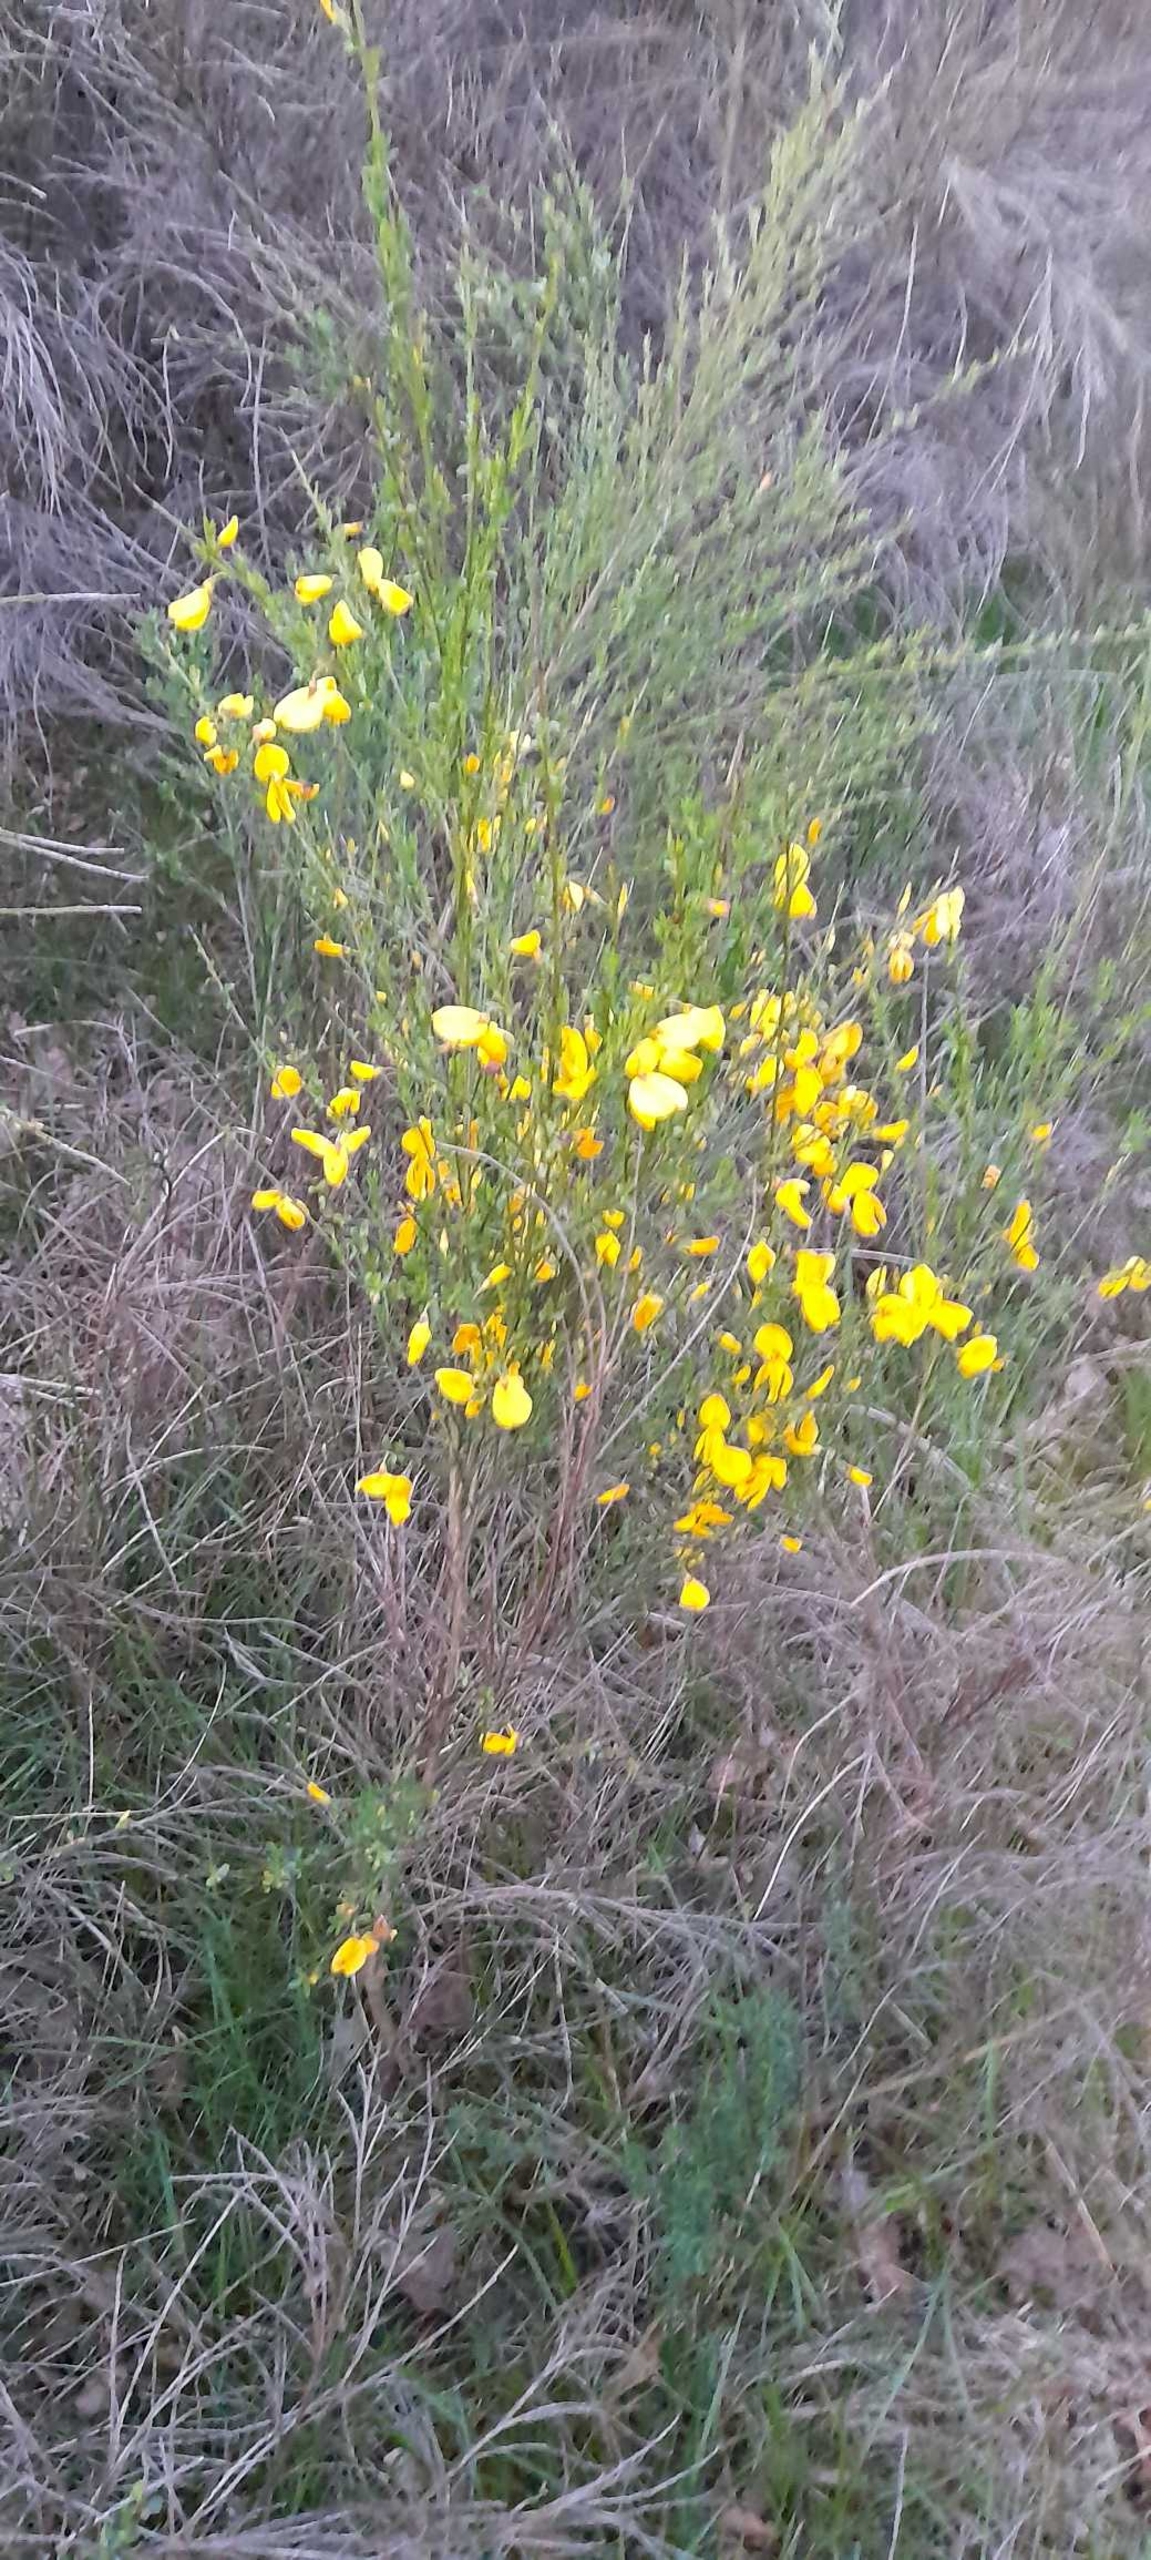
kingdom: Plantae
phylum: Tracheophyta
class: Magnoliopsida
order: Fabales
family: Fabaceae
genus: Cytisus
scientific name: Cytisus scoparius
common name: Almindelig gyvel
